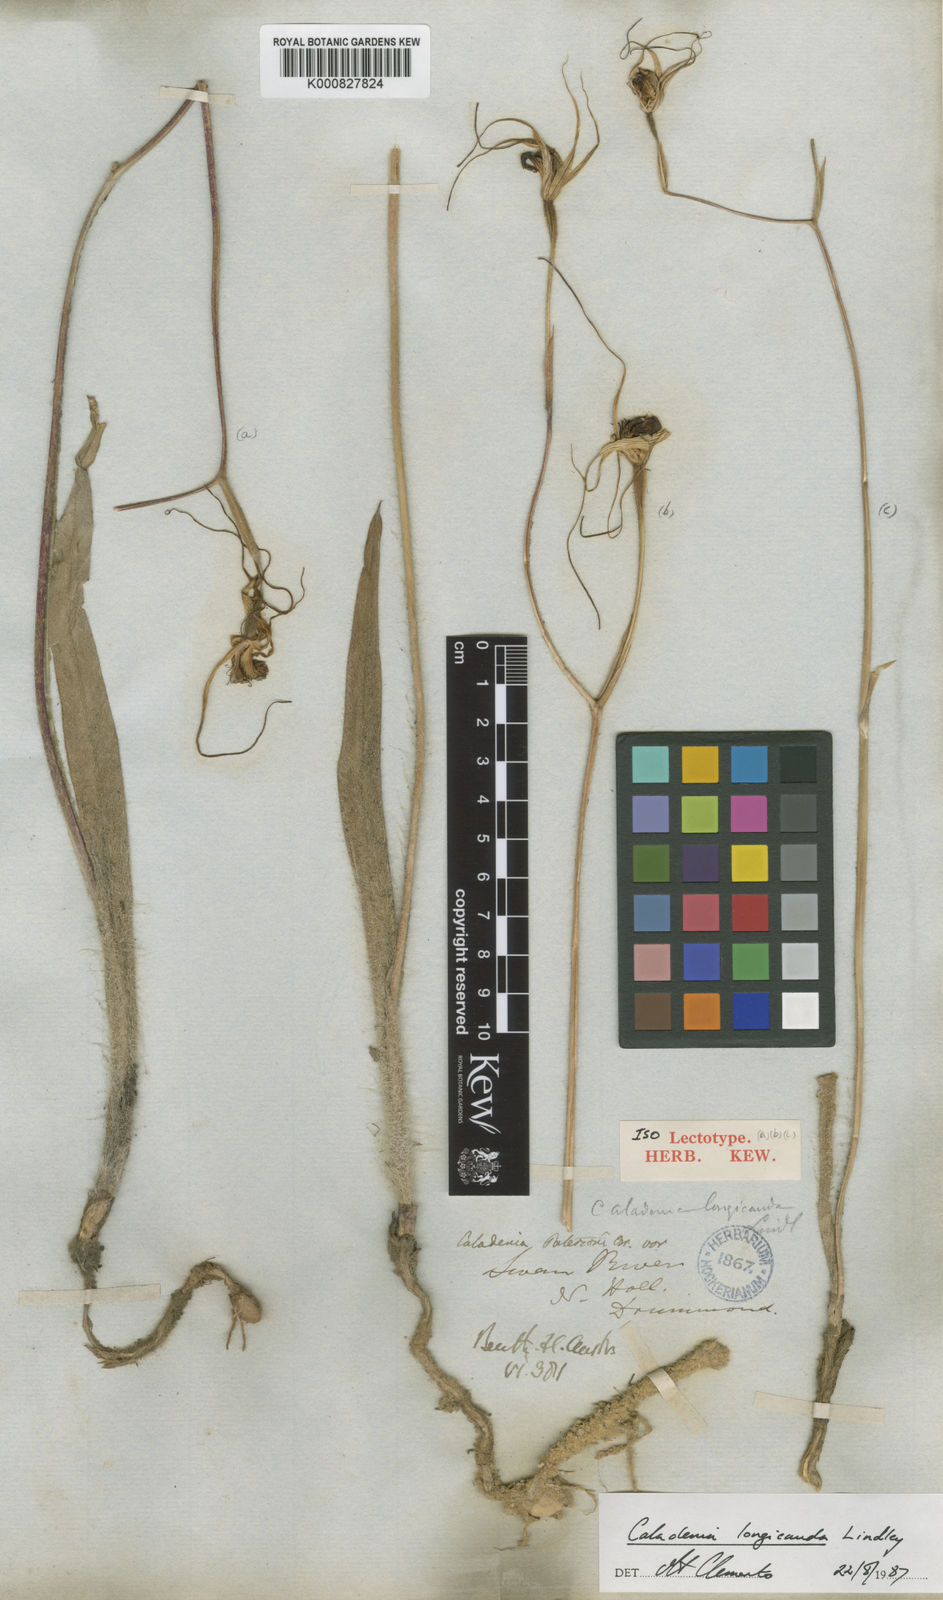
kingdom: Plantae
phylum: Tracheophyta
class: Liliopsida
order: Asparagales
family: Orchidaceae
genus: Caladenia
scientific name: Caladenia longicauda
